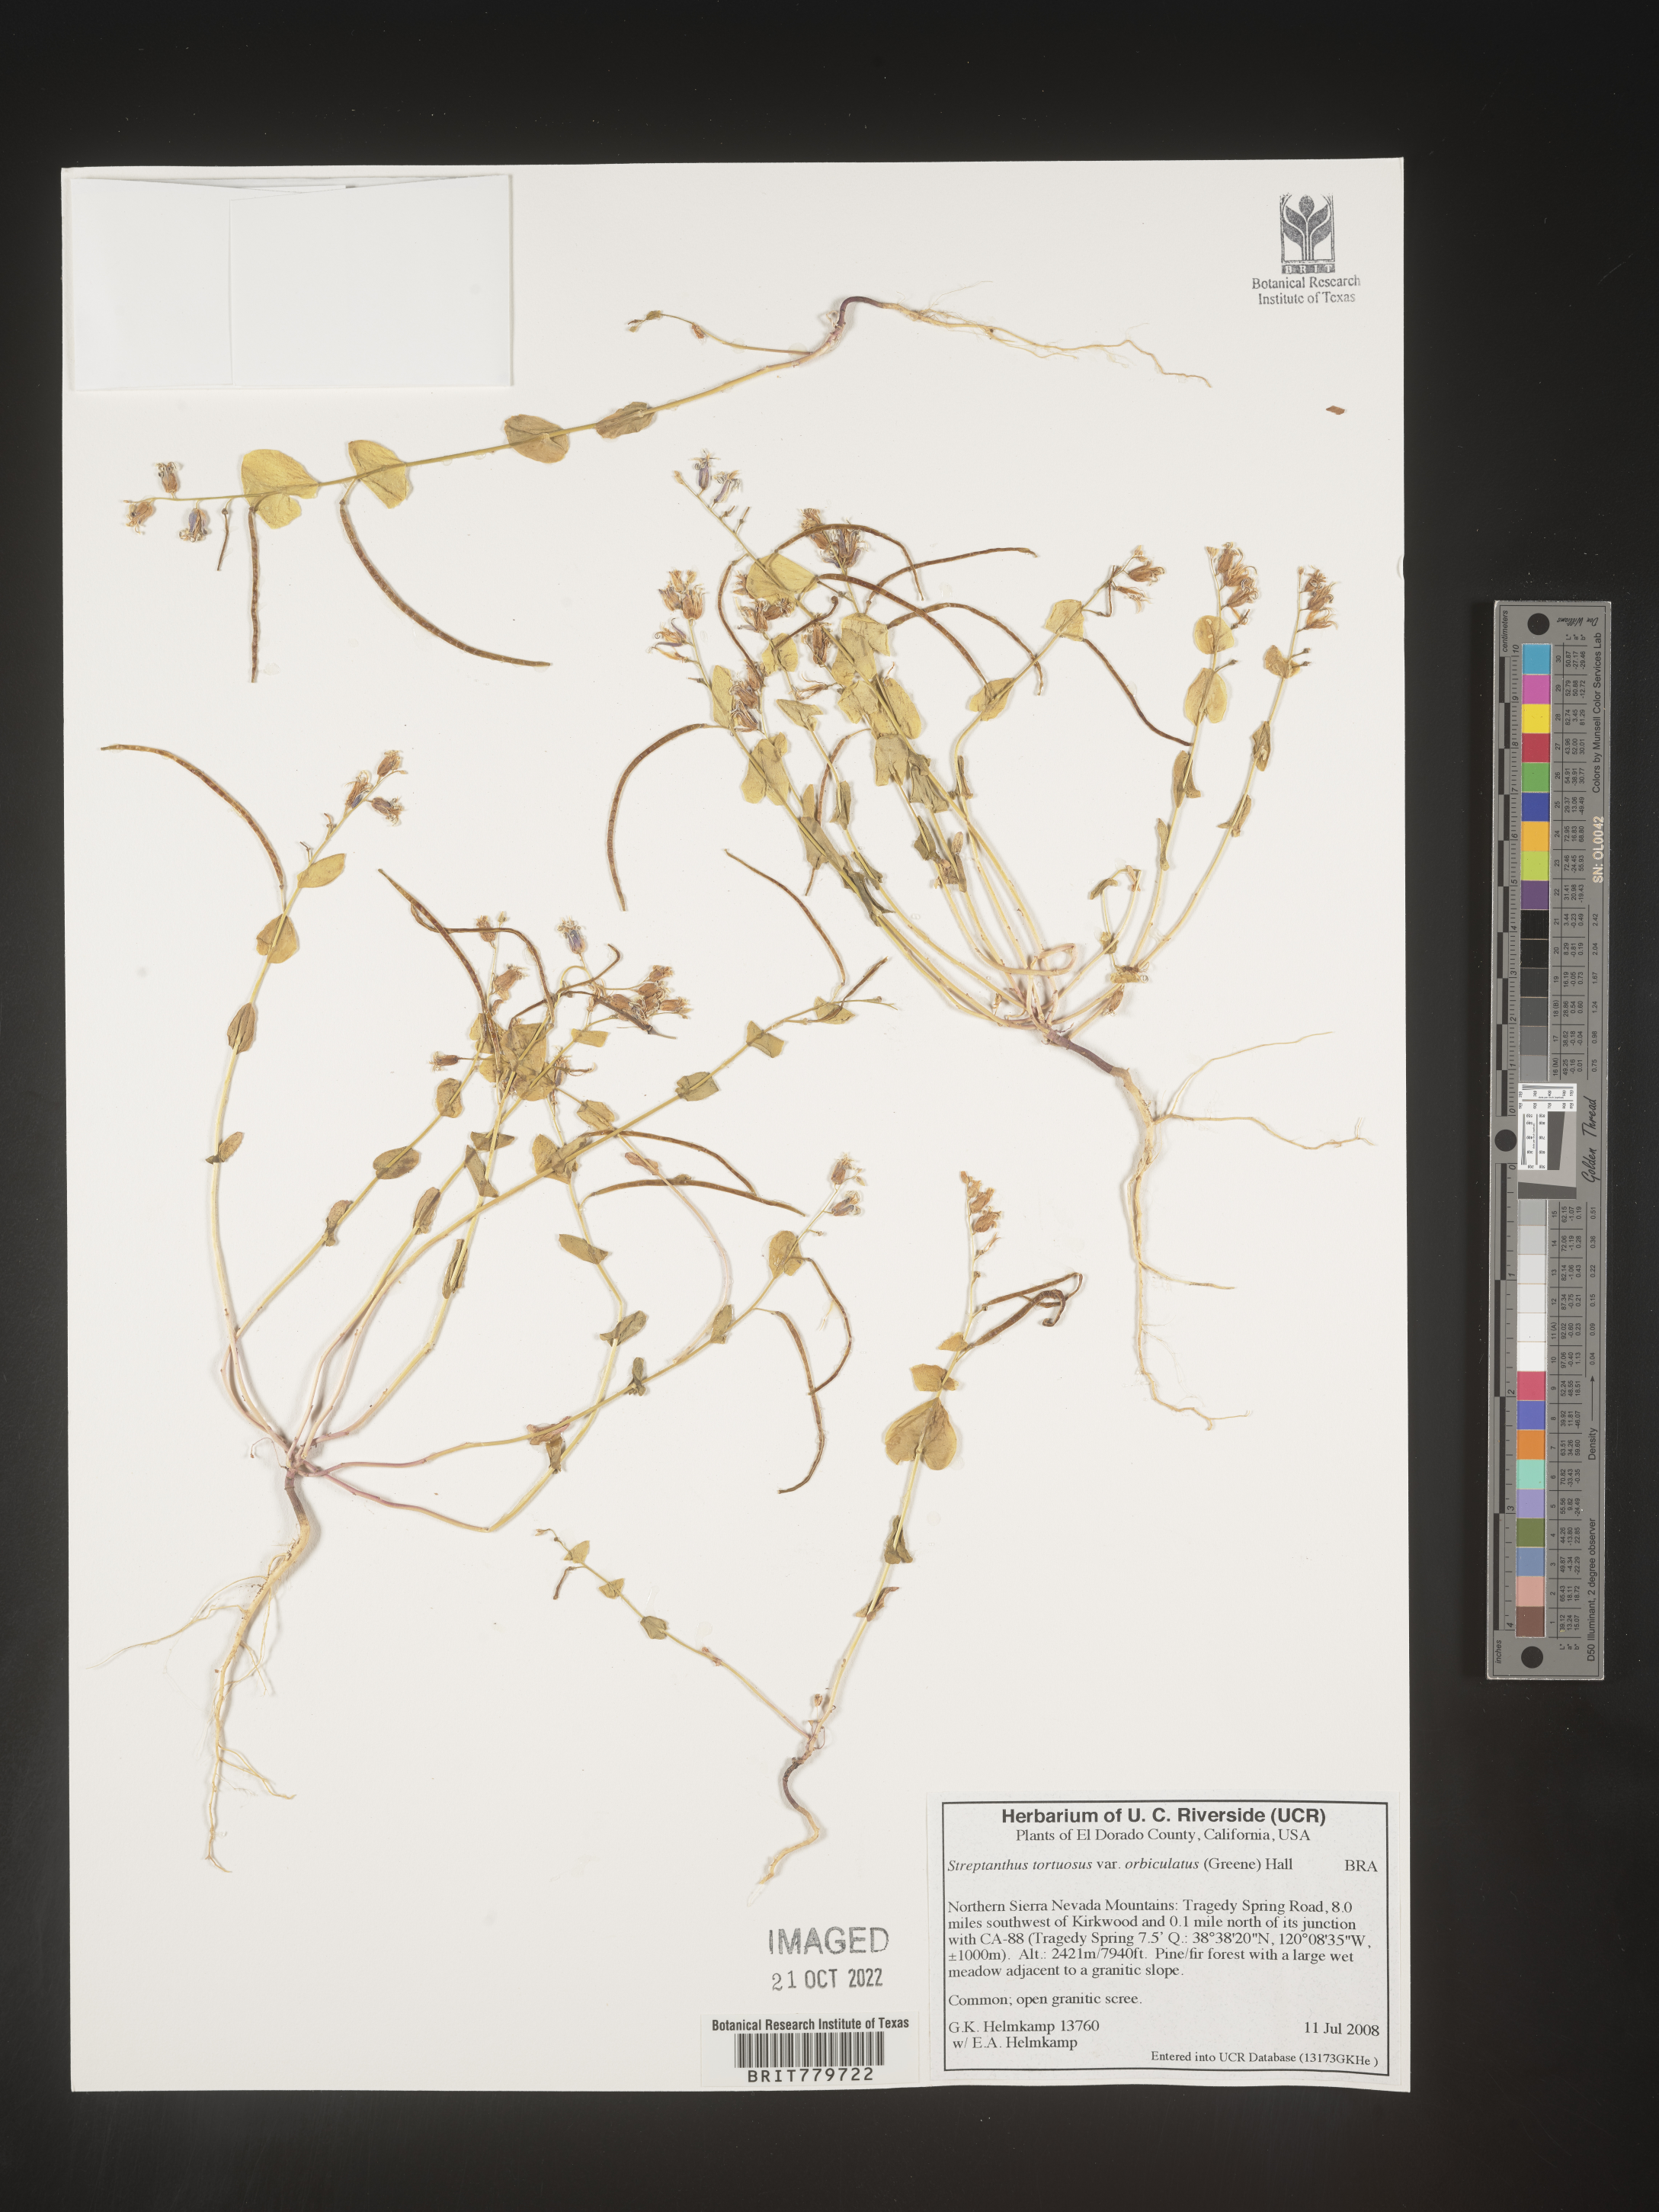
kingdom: Plantae
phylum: Tracheophyta
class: Magnoliopsida
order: Brassicales
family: Brassicaceae
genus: Streptanthus
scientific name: Streptanthus
